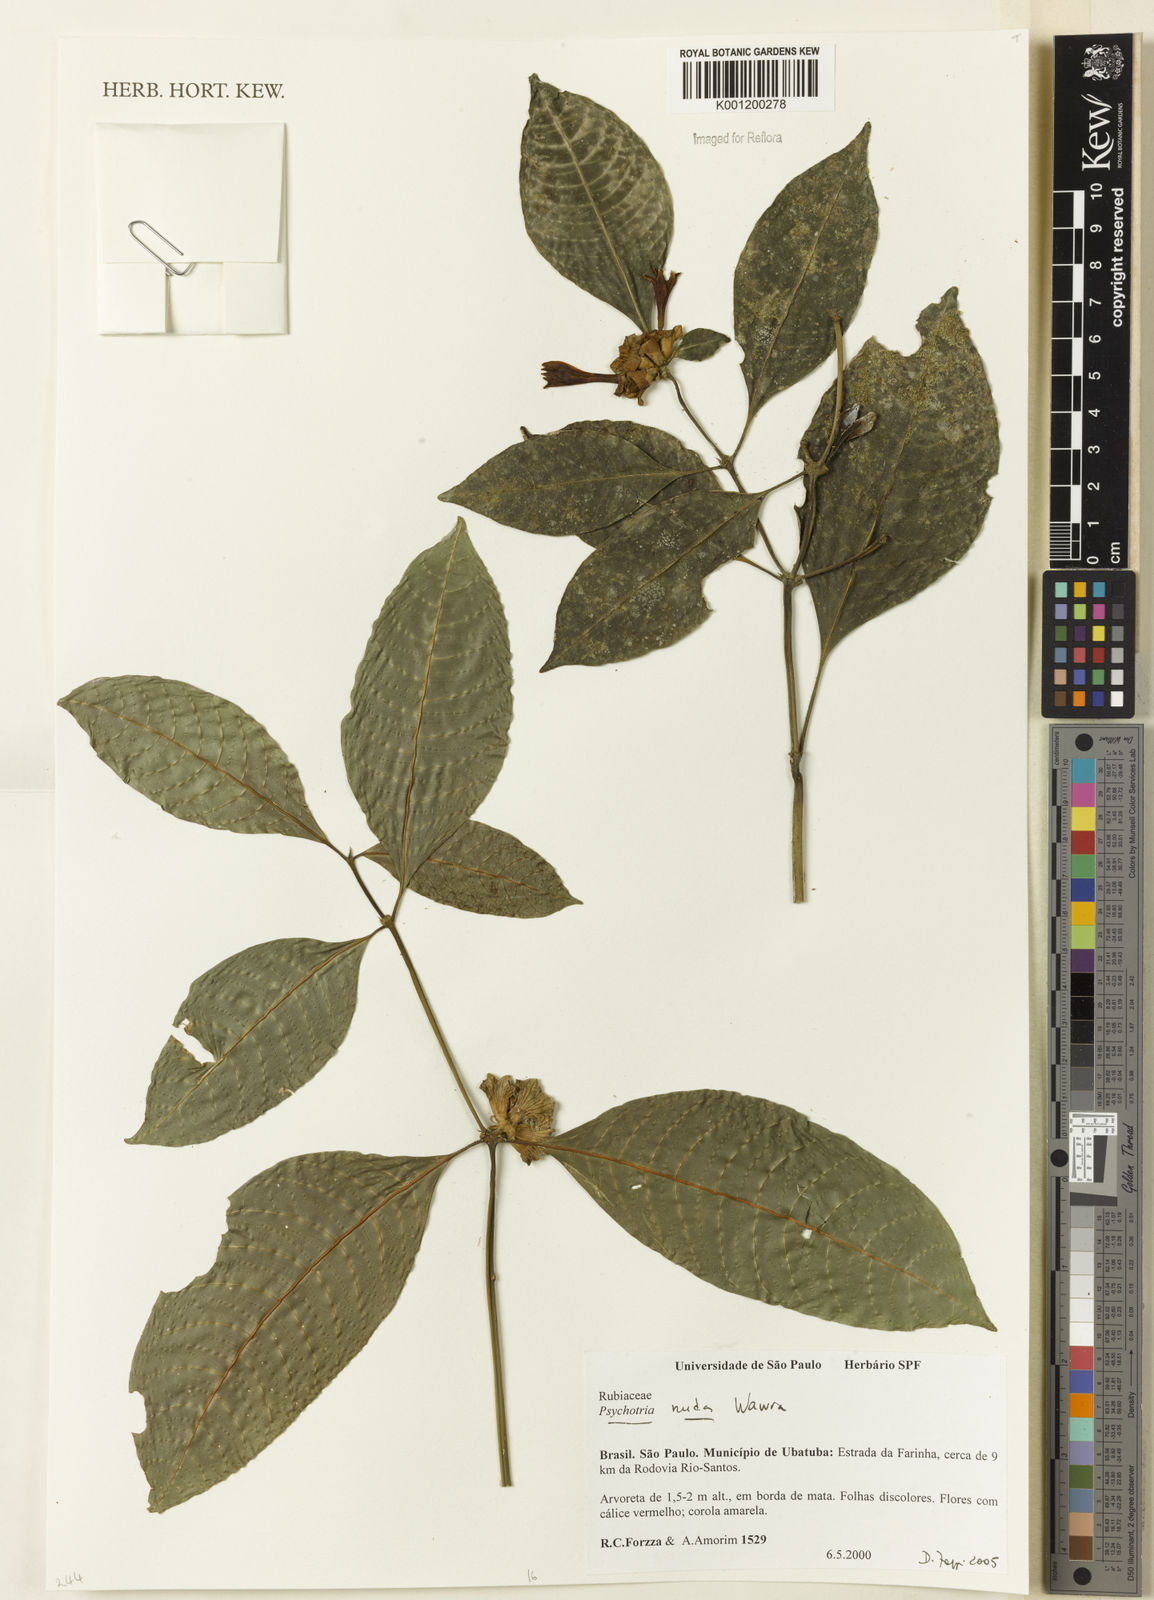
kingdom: Plantae
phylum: Tracheophyta
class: Magnoliopsida
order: Gentianales
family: Rubiaceae
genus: Psychotria
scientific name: Psychotria nuda
